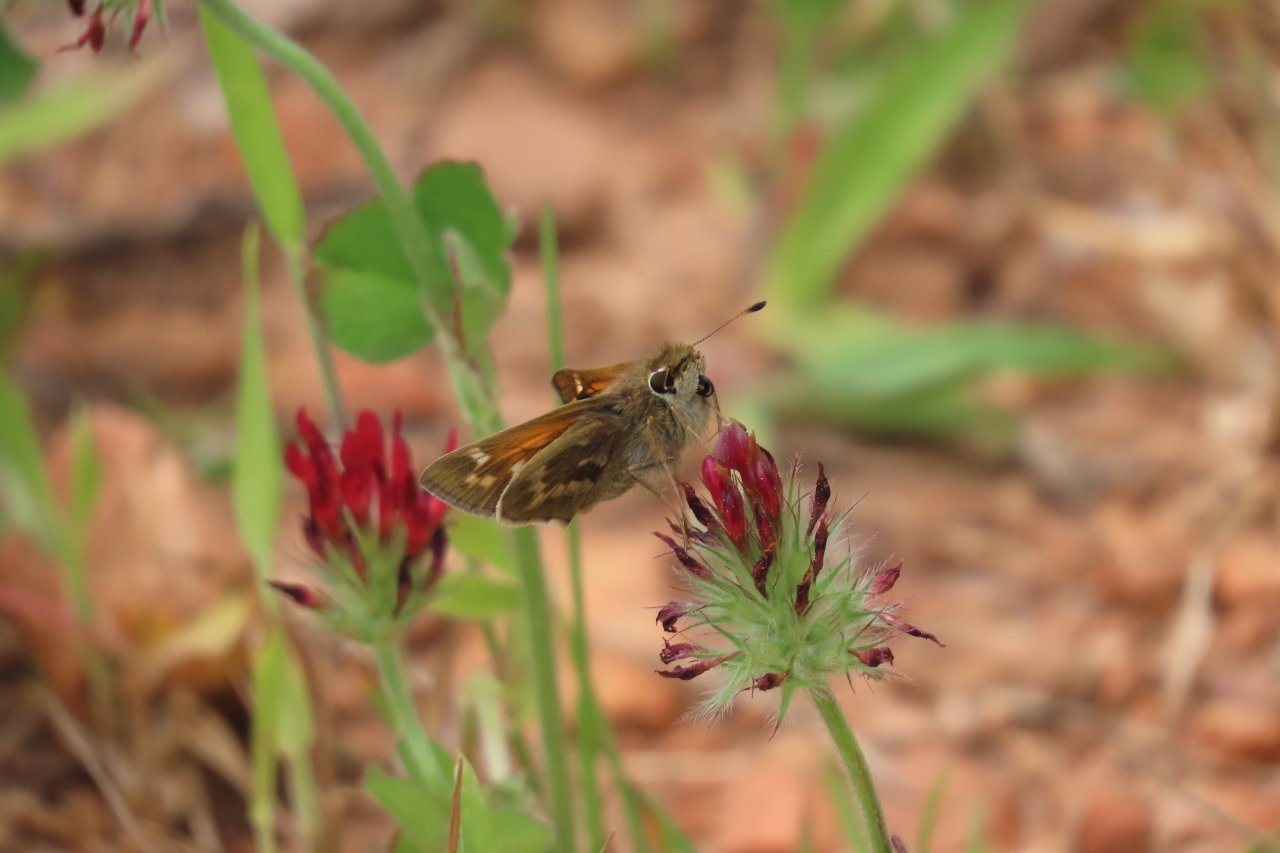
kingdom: Animalia
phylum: Arthropoda
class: Insecta
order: Lepidoptera
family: Hesperiidae
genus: Atalopedes
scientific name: Atalopedes campestris
